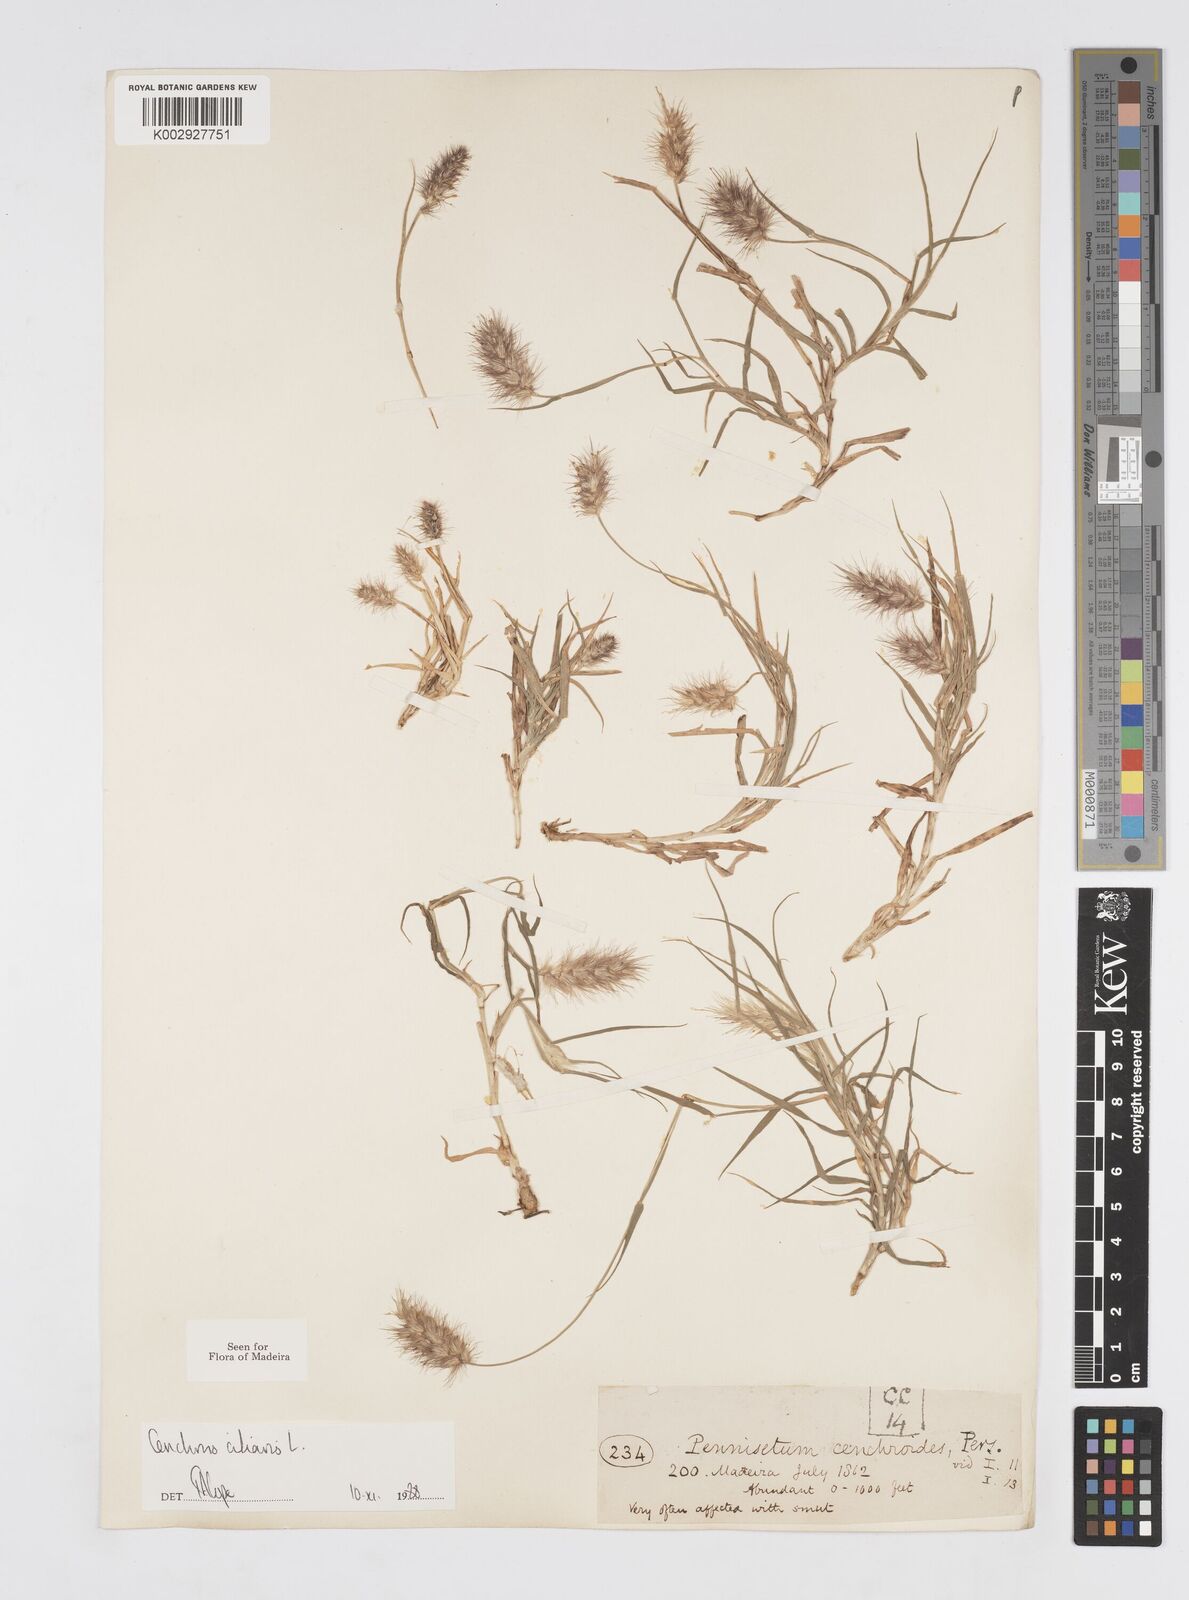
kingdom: Plantae
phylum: Tracheophyta
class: Liliopsida
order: Poales
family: Poaceae
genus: Cenchrus
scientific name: Cenchrus ciliaris
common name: Buffelgrass
